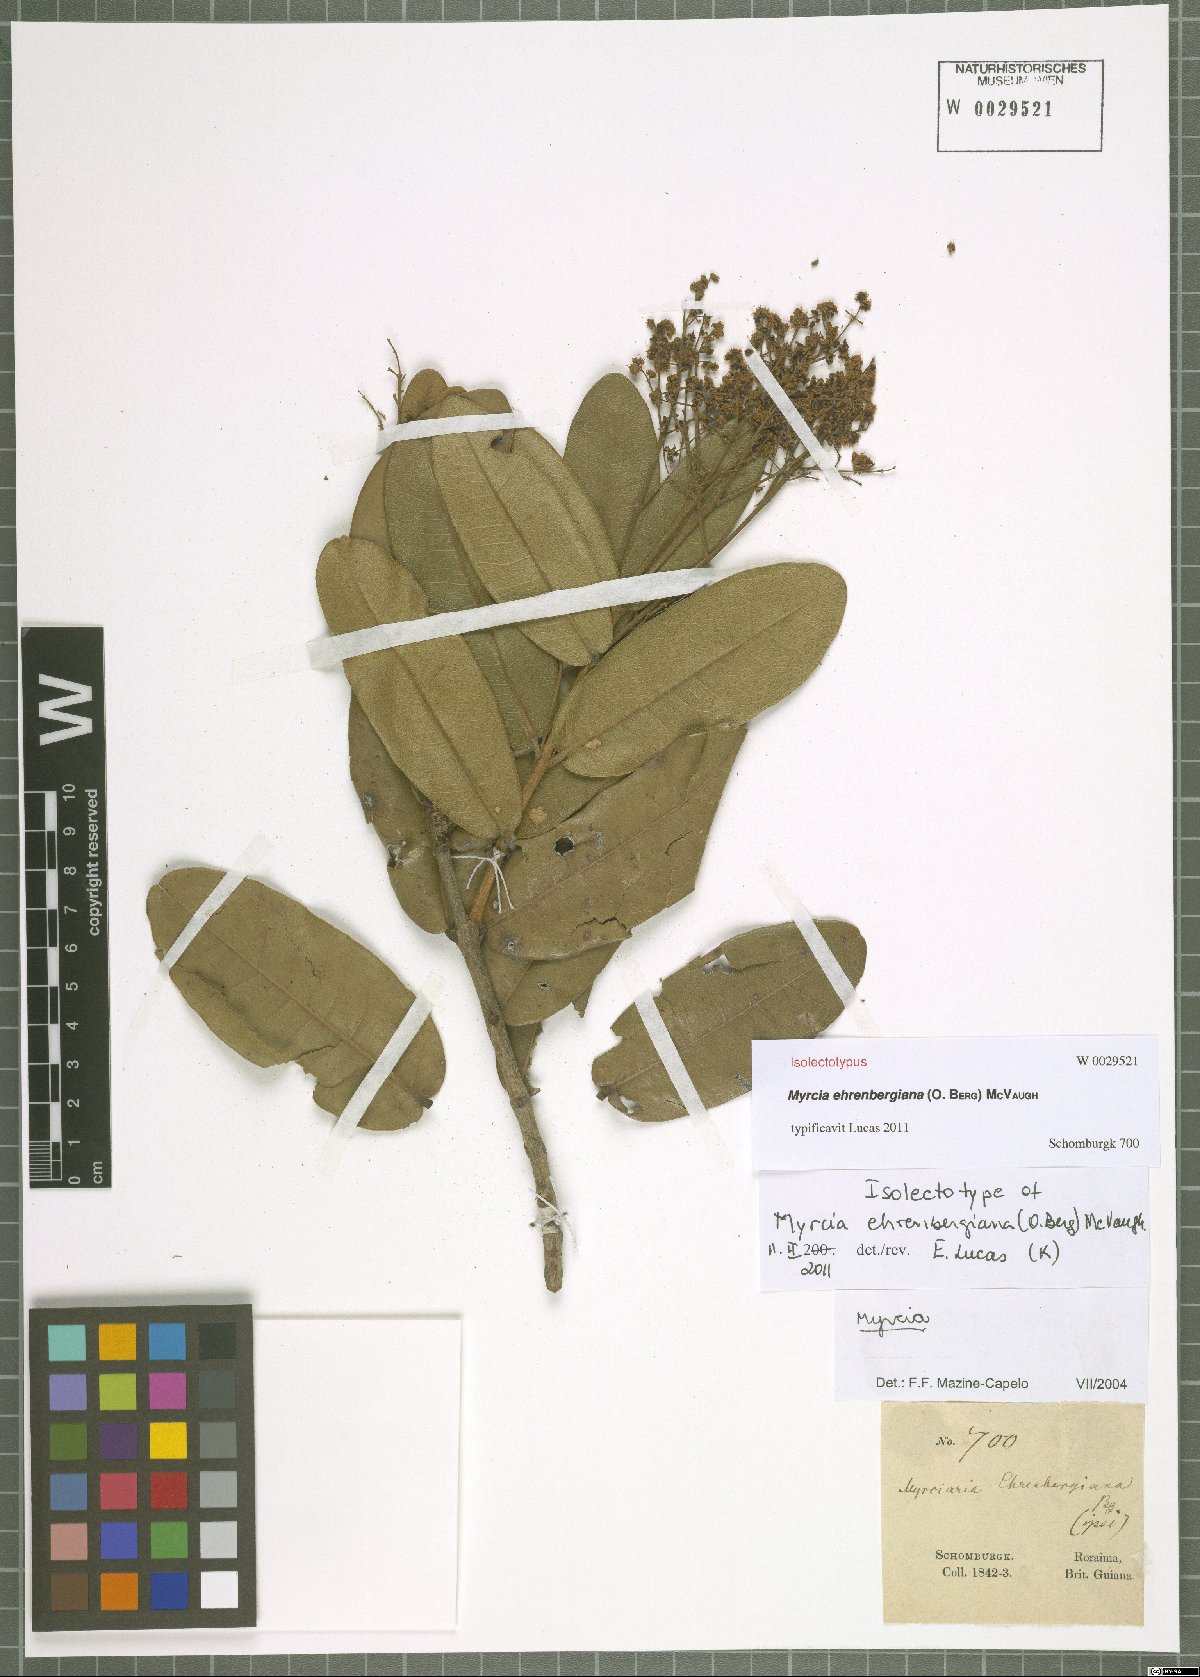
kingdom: Plantae
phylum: Tracheophyta
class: Magnoliopsida
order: Myrtales
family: Myrtaceae
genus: Myrcia
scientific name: Myrcia ehrenbergiana
